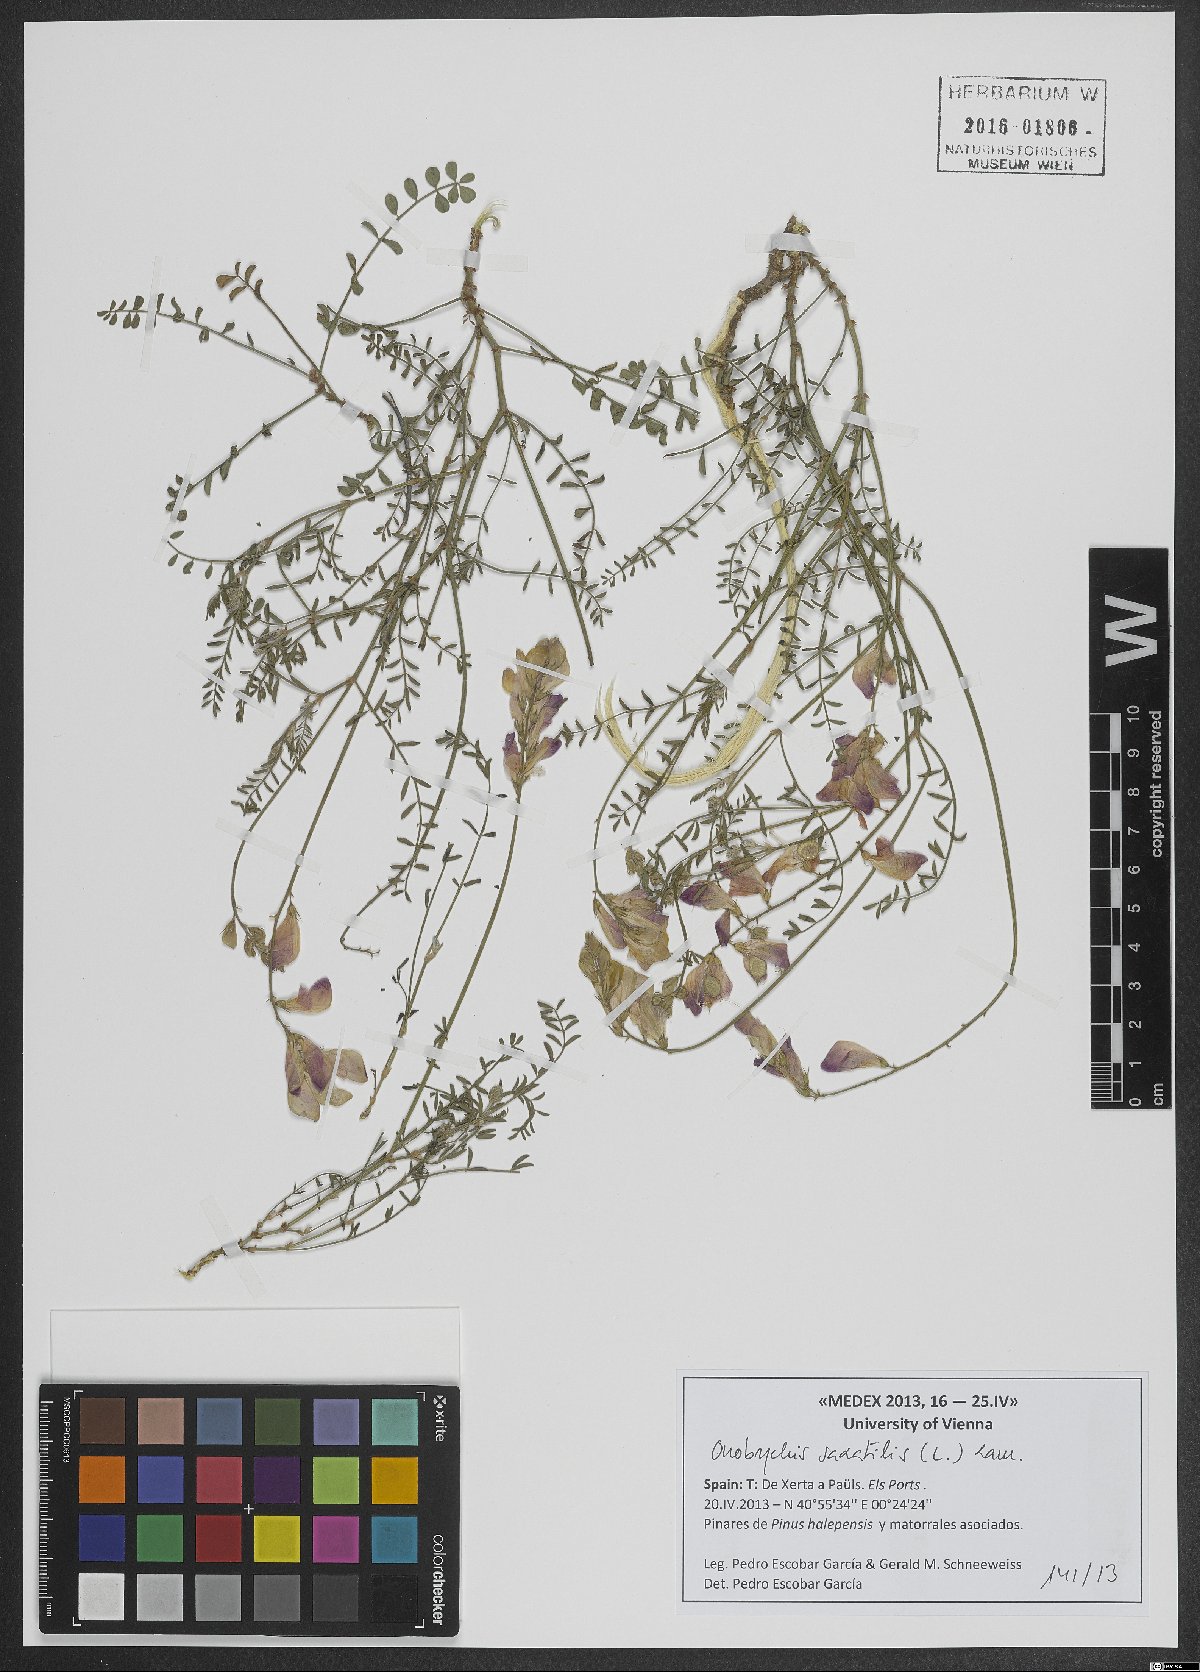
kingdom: Plantae
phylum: Tracheophyta
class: Magnoliopsida
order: Fabales
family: Fabaceae
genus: Onobrychis
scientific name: Onobrychis saxatilis
